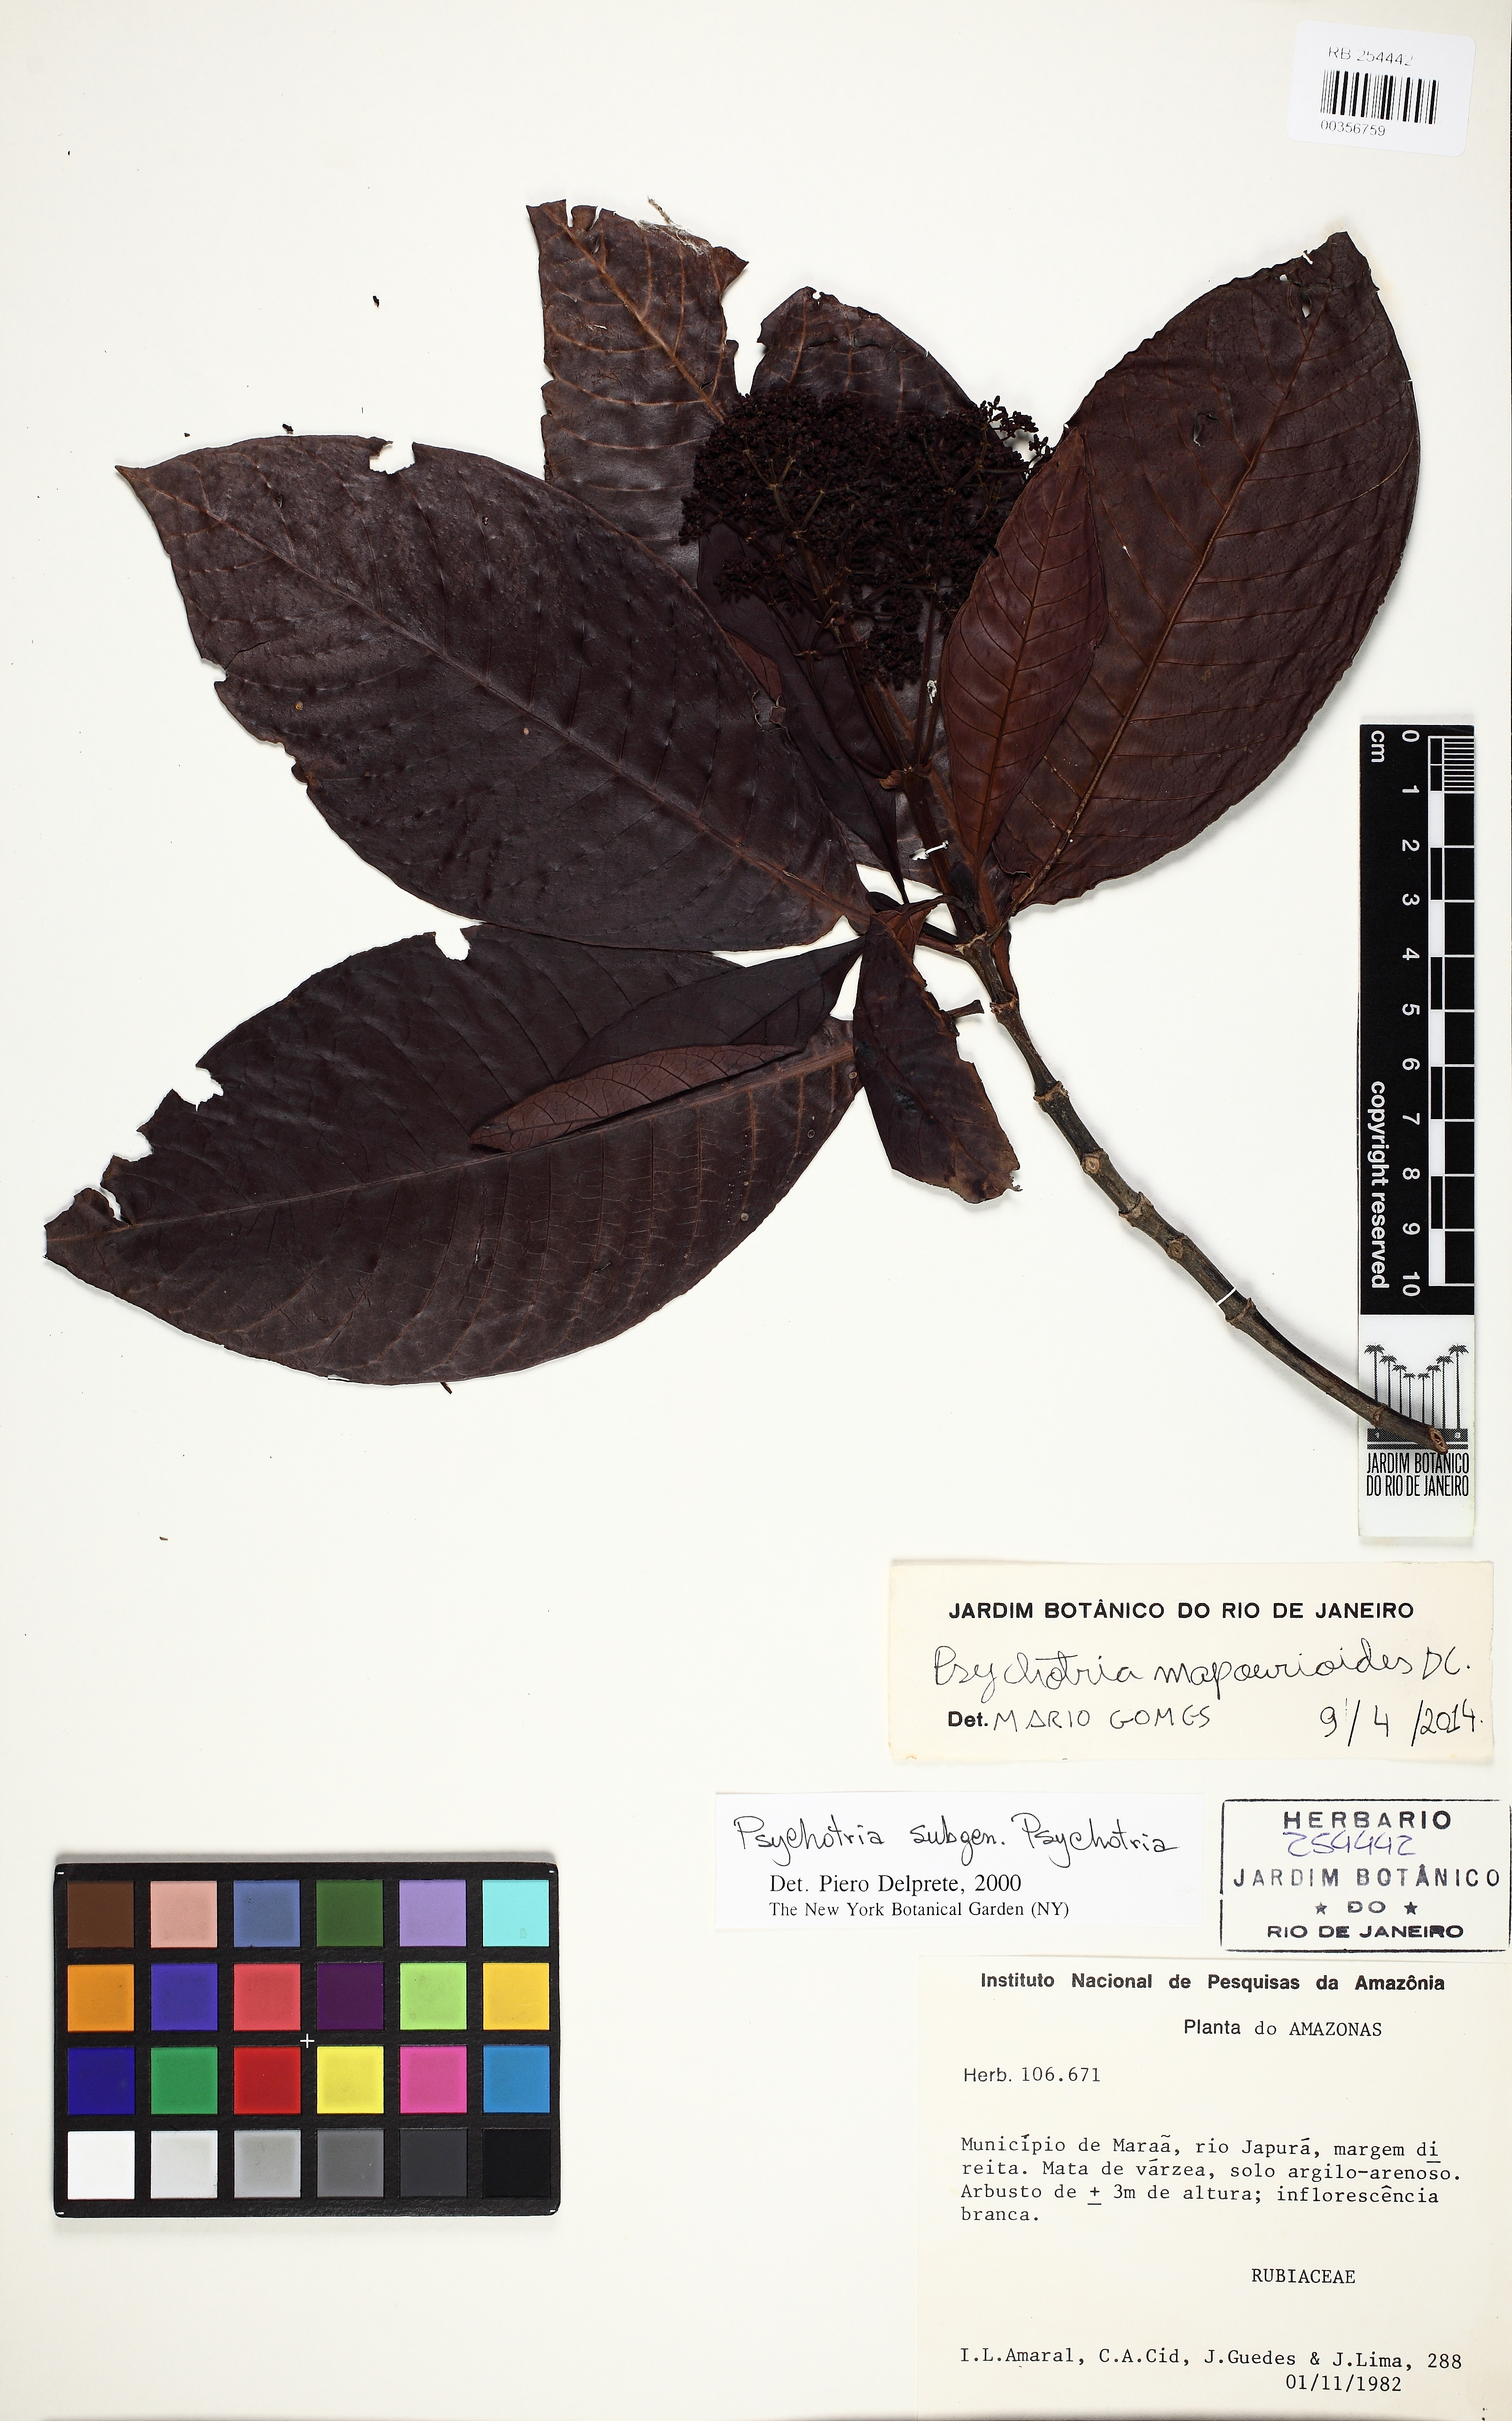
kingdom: Plantae
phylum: Tracheophyta
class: Magnoliopsida
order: Gentianales
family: Rubiaceae
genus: Psychotria
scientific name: Psychotria pedunculosa
